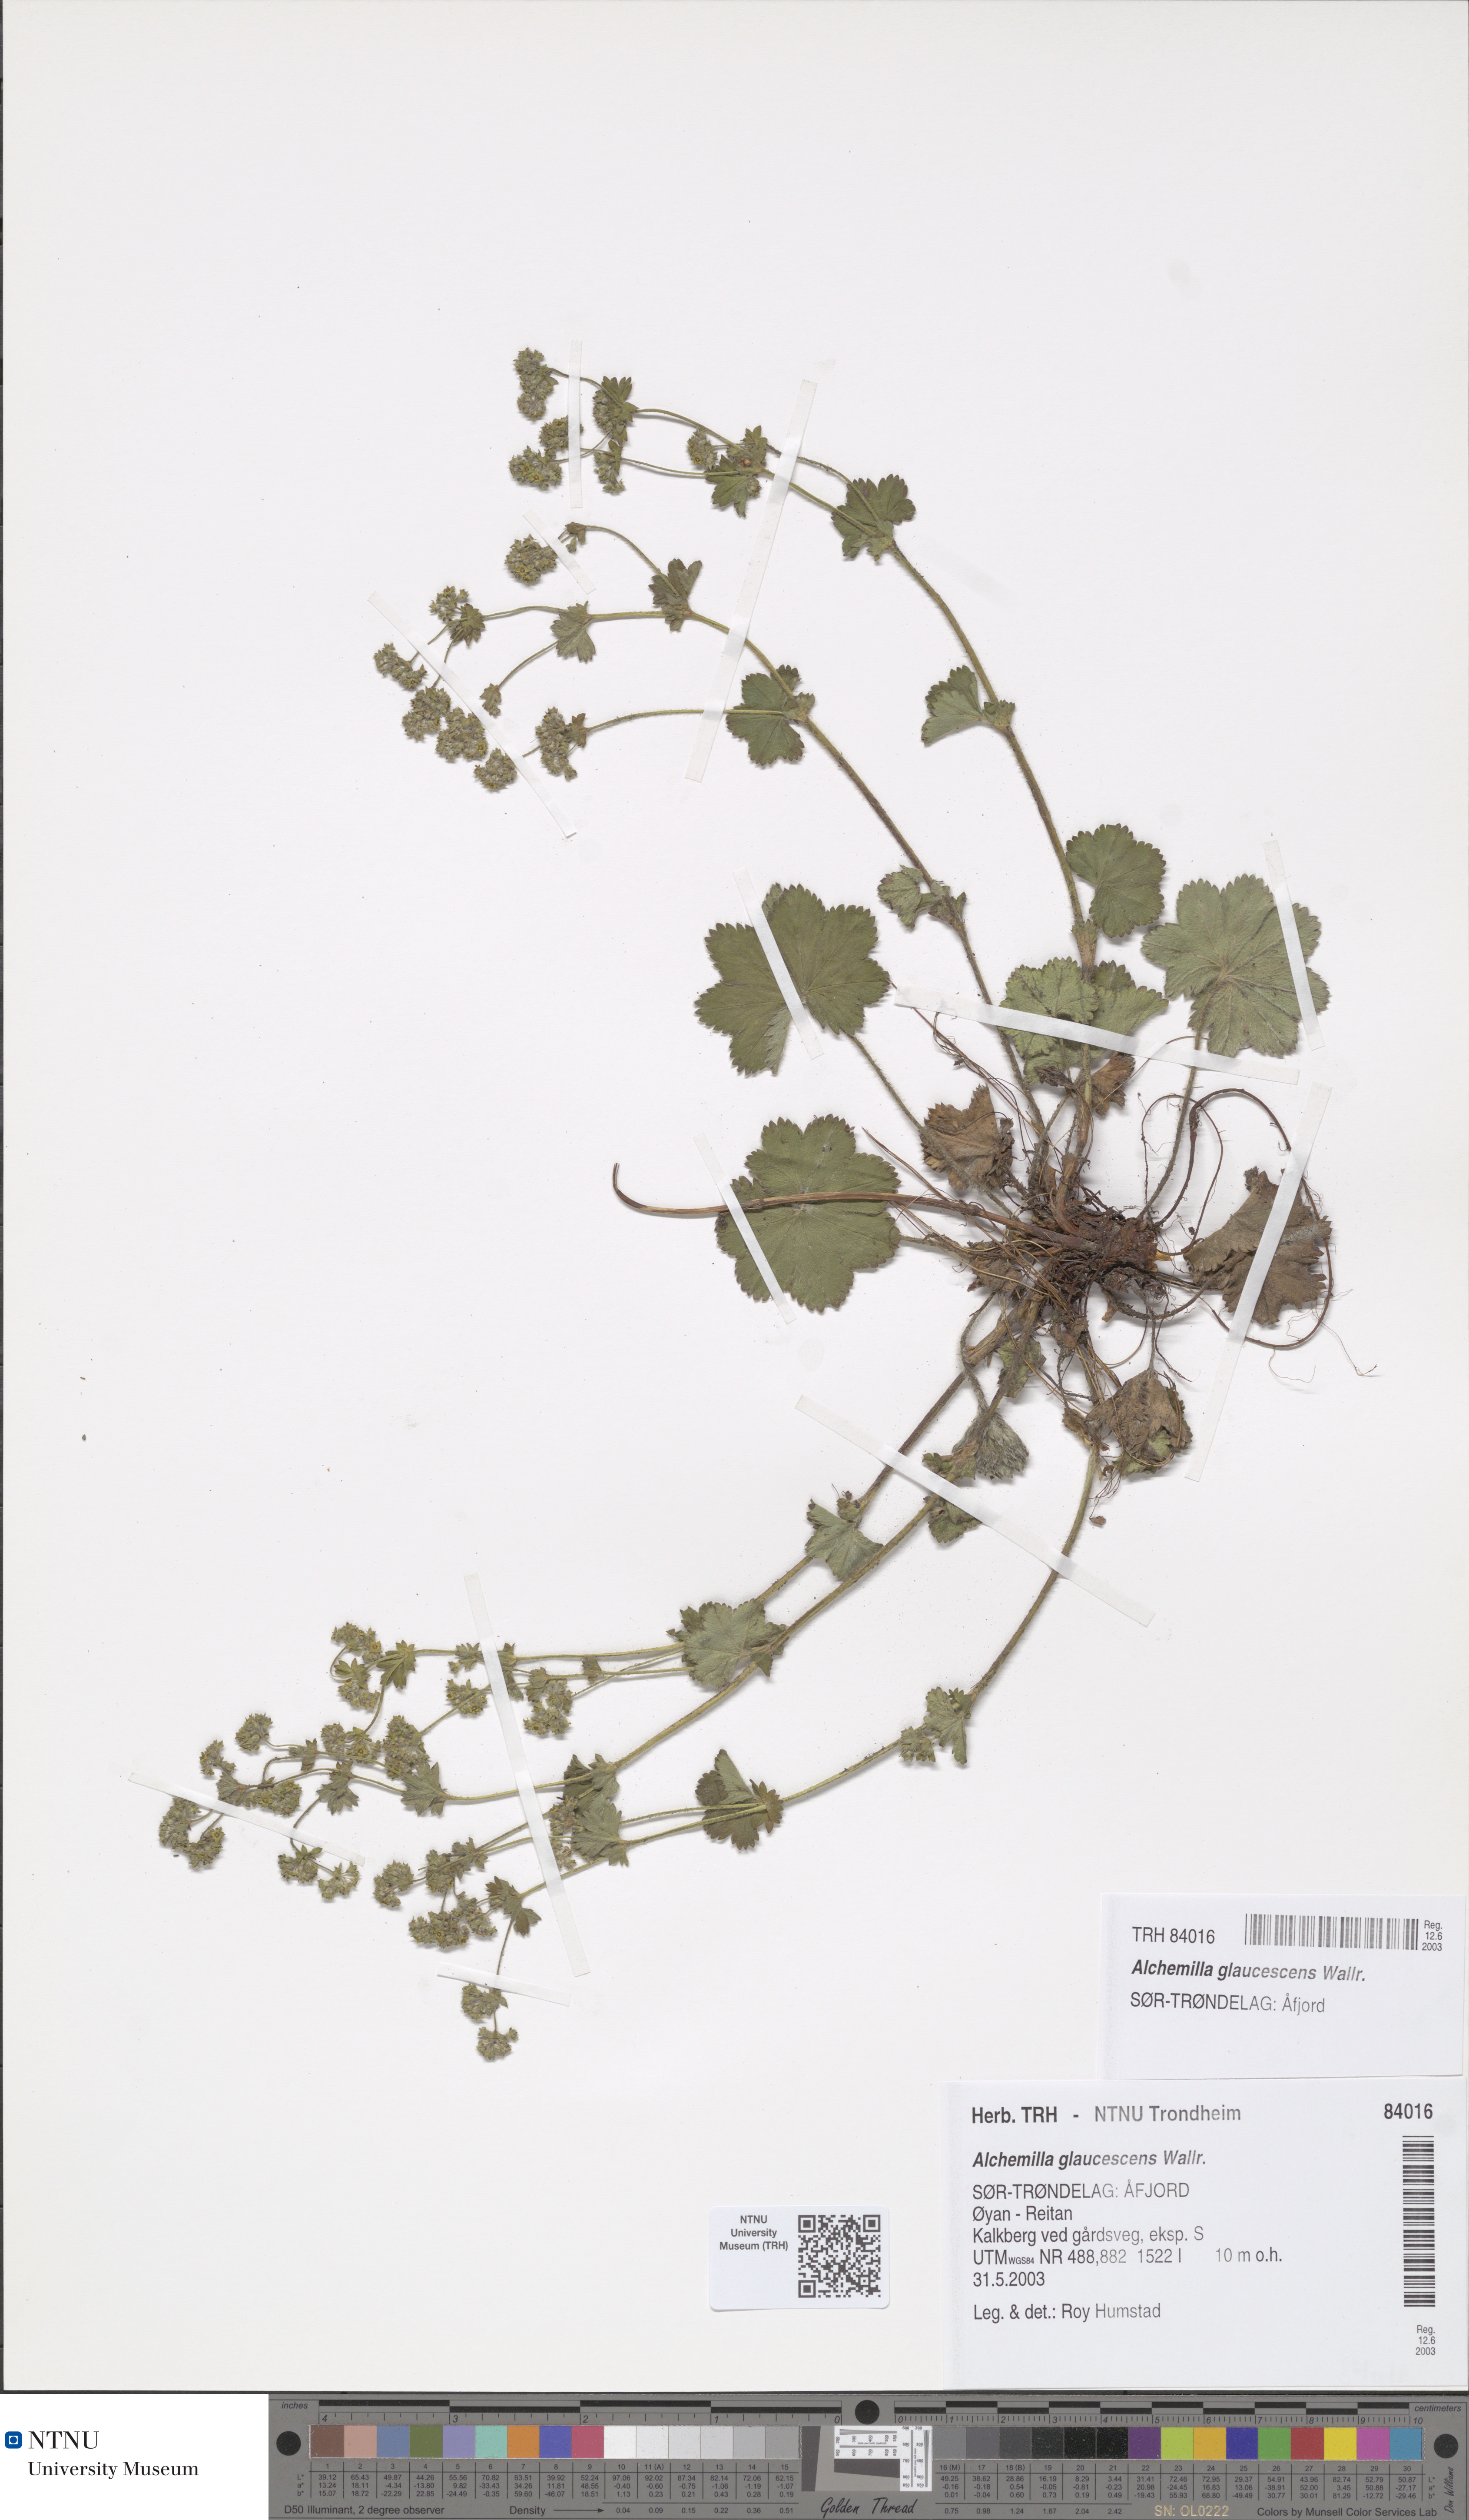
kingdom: Plantae
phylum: Tracheophyta
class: Magnoliopsida
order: Rosales
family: Rosaceae
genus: Alchemilla
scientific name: Alchemilla glaucescens
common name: Silky lady's mantle
